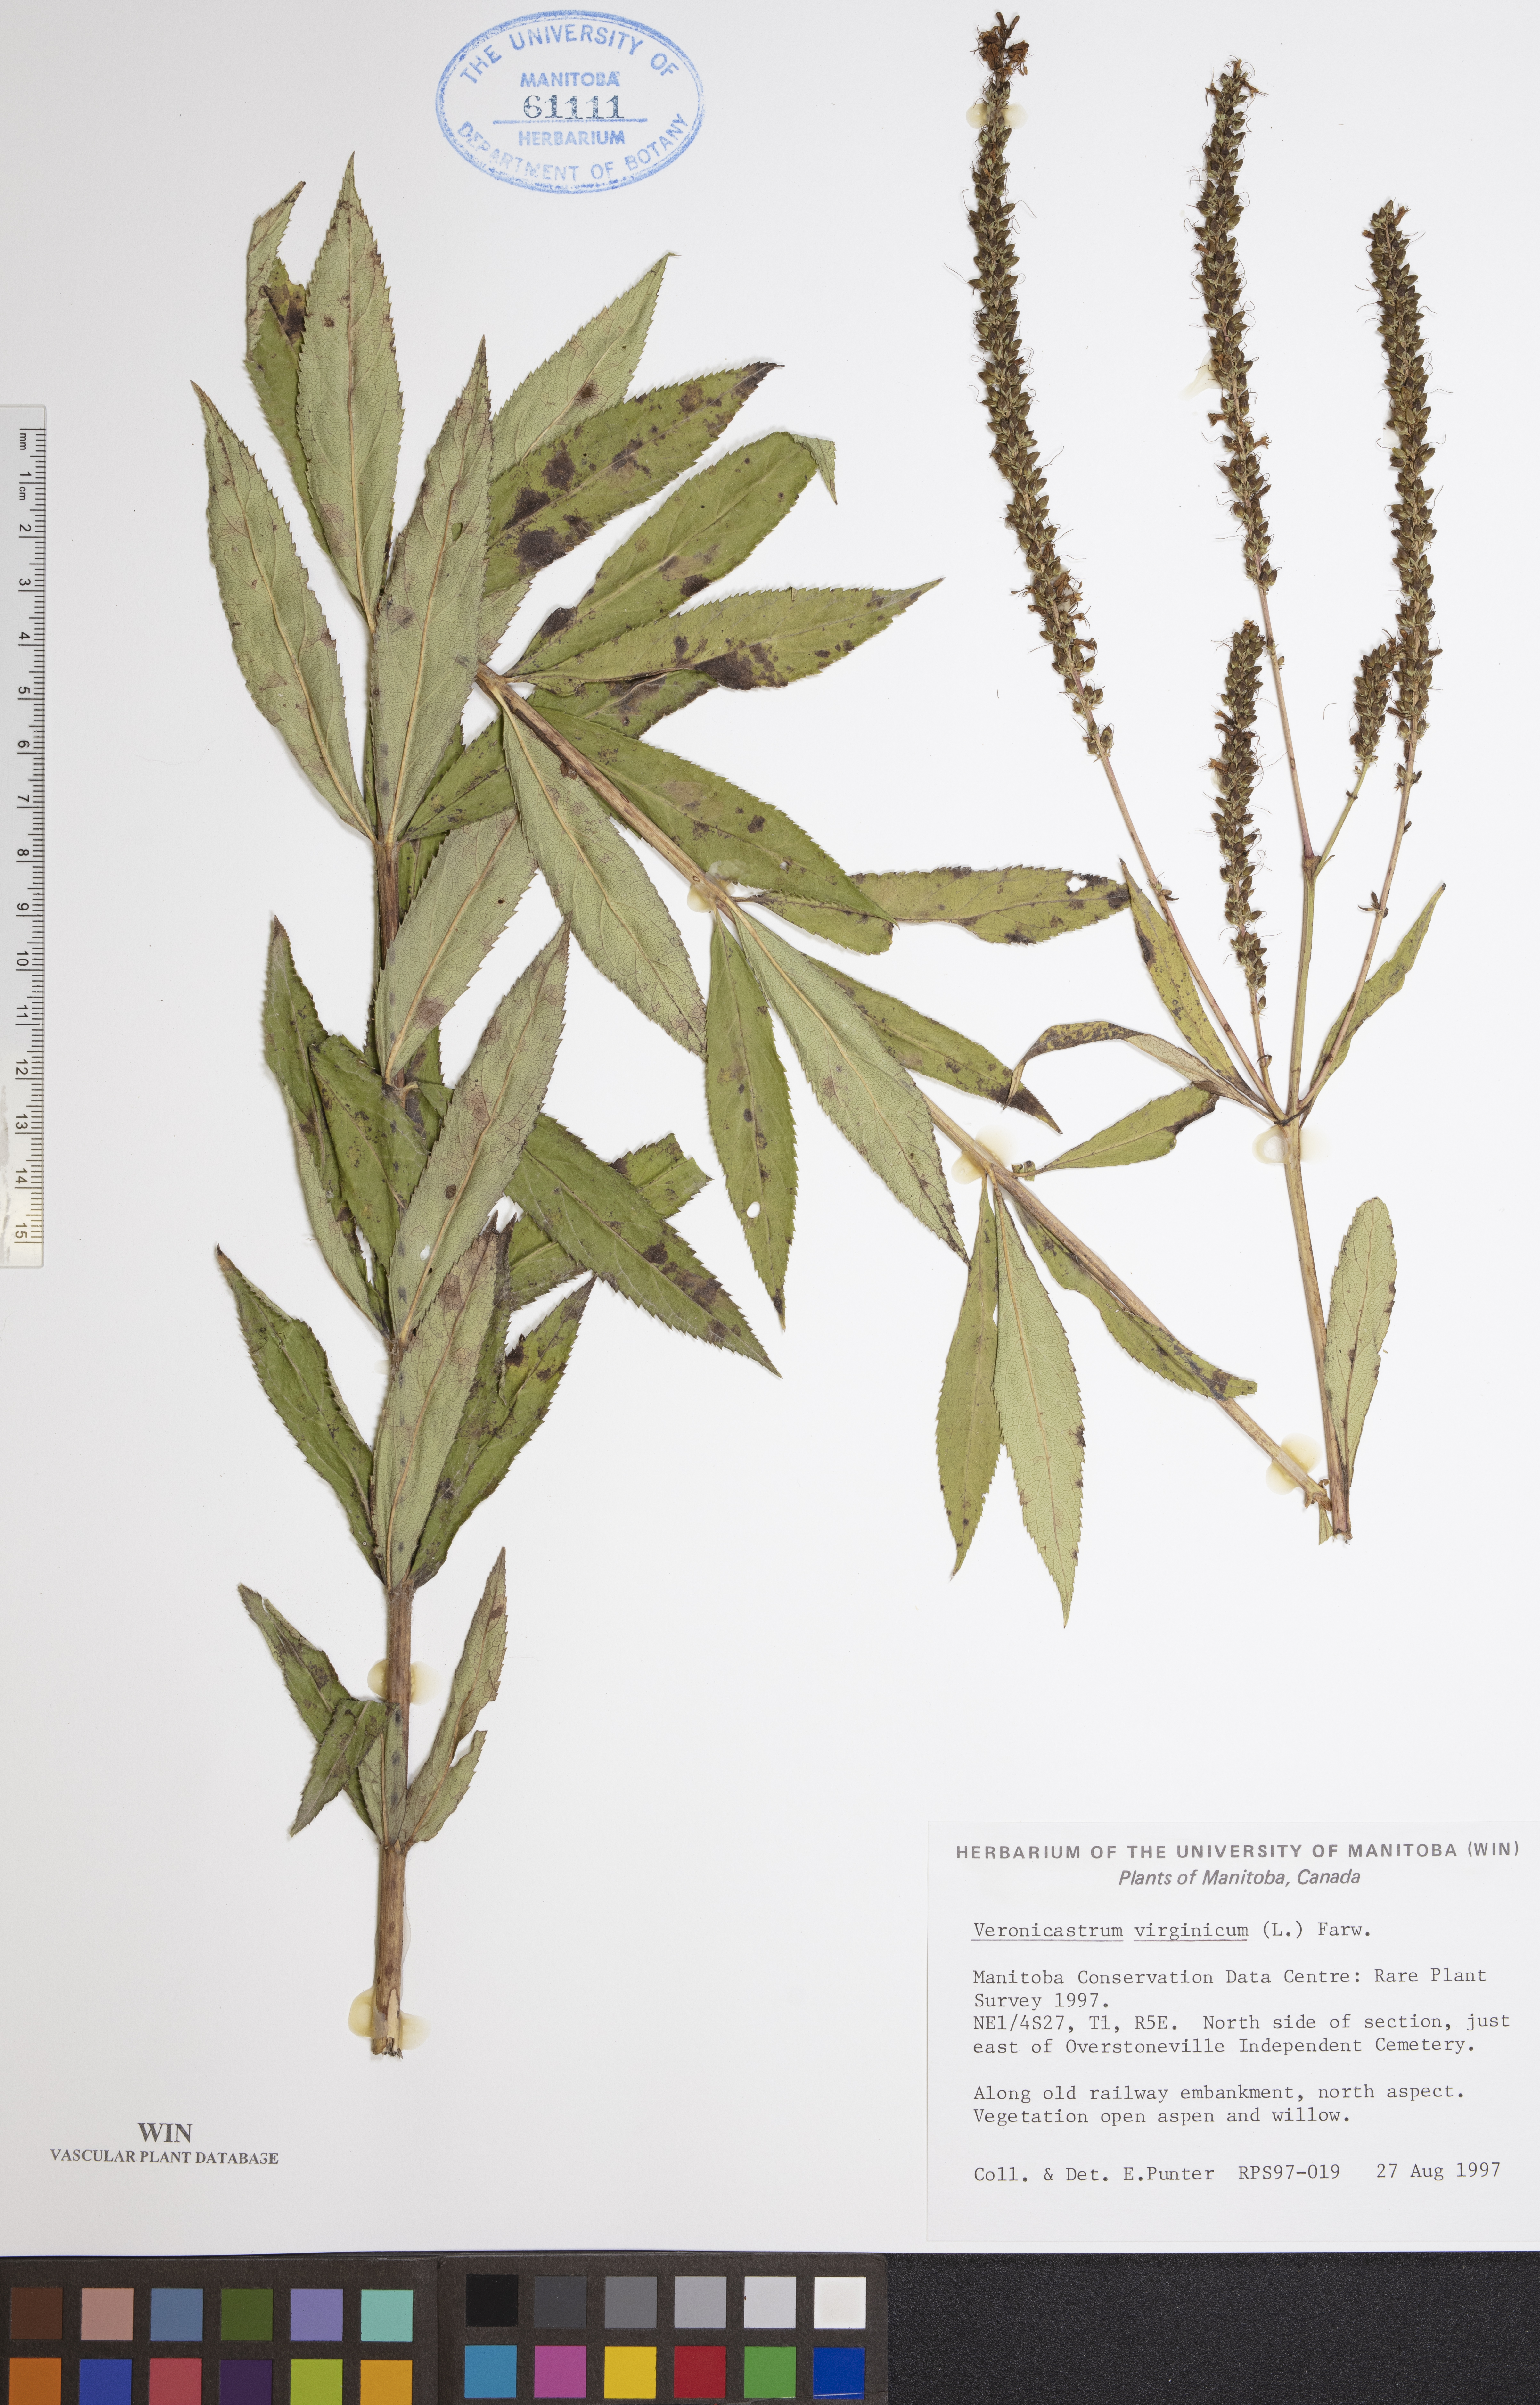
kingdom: Plantae
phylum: Tracheophyta
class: Magnoliopsida
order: Lamiales
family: Plantaginaceae
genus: Veronicastrum
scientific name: Veronicastrum virginicum
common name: Blackroot
